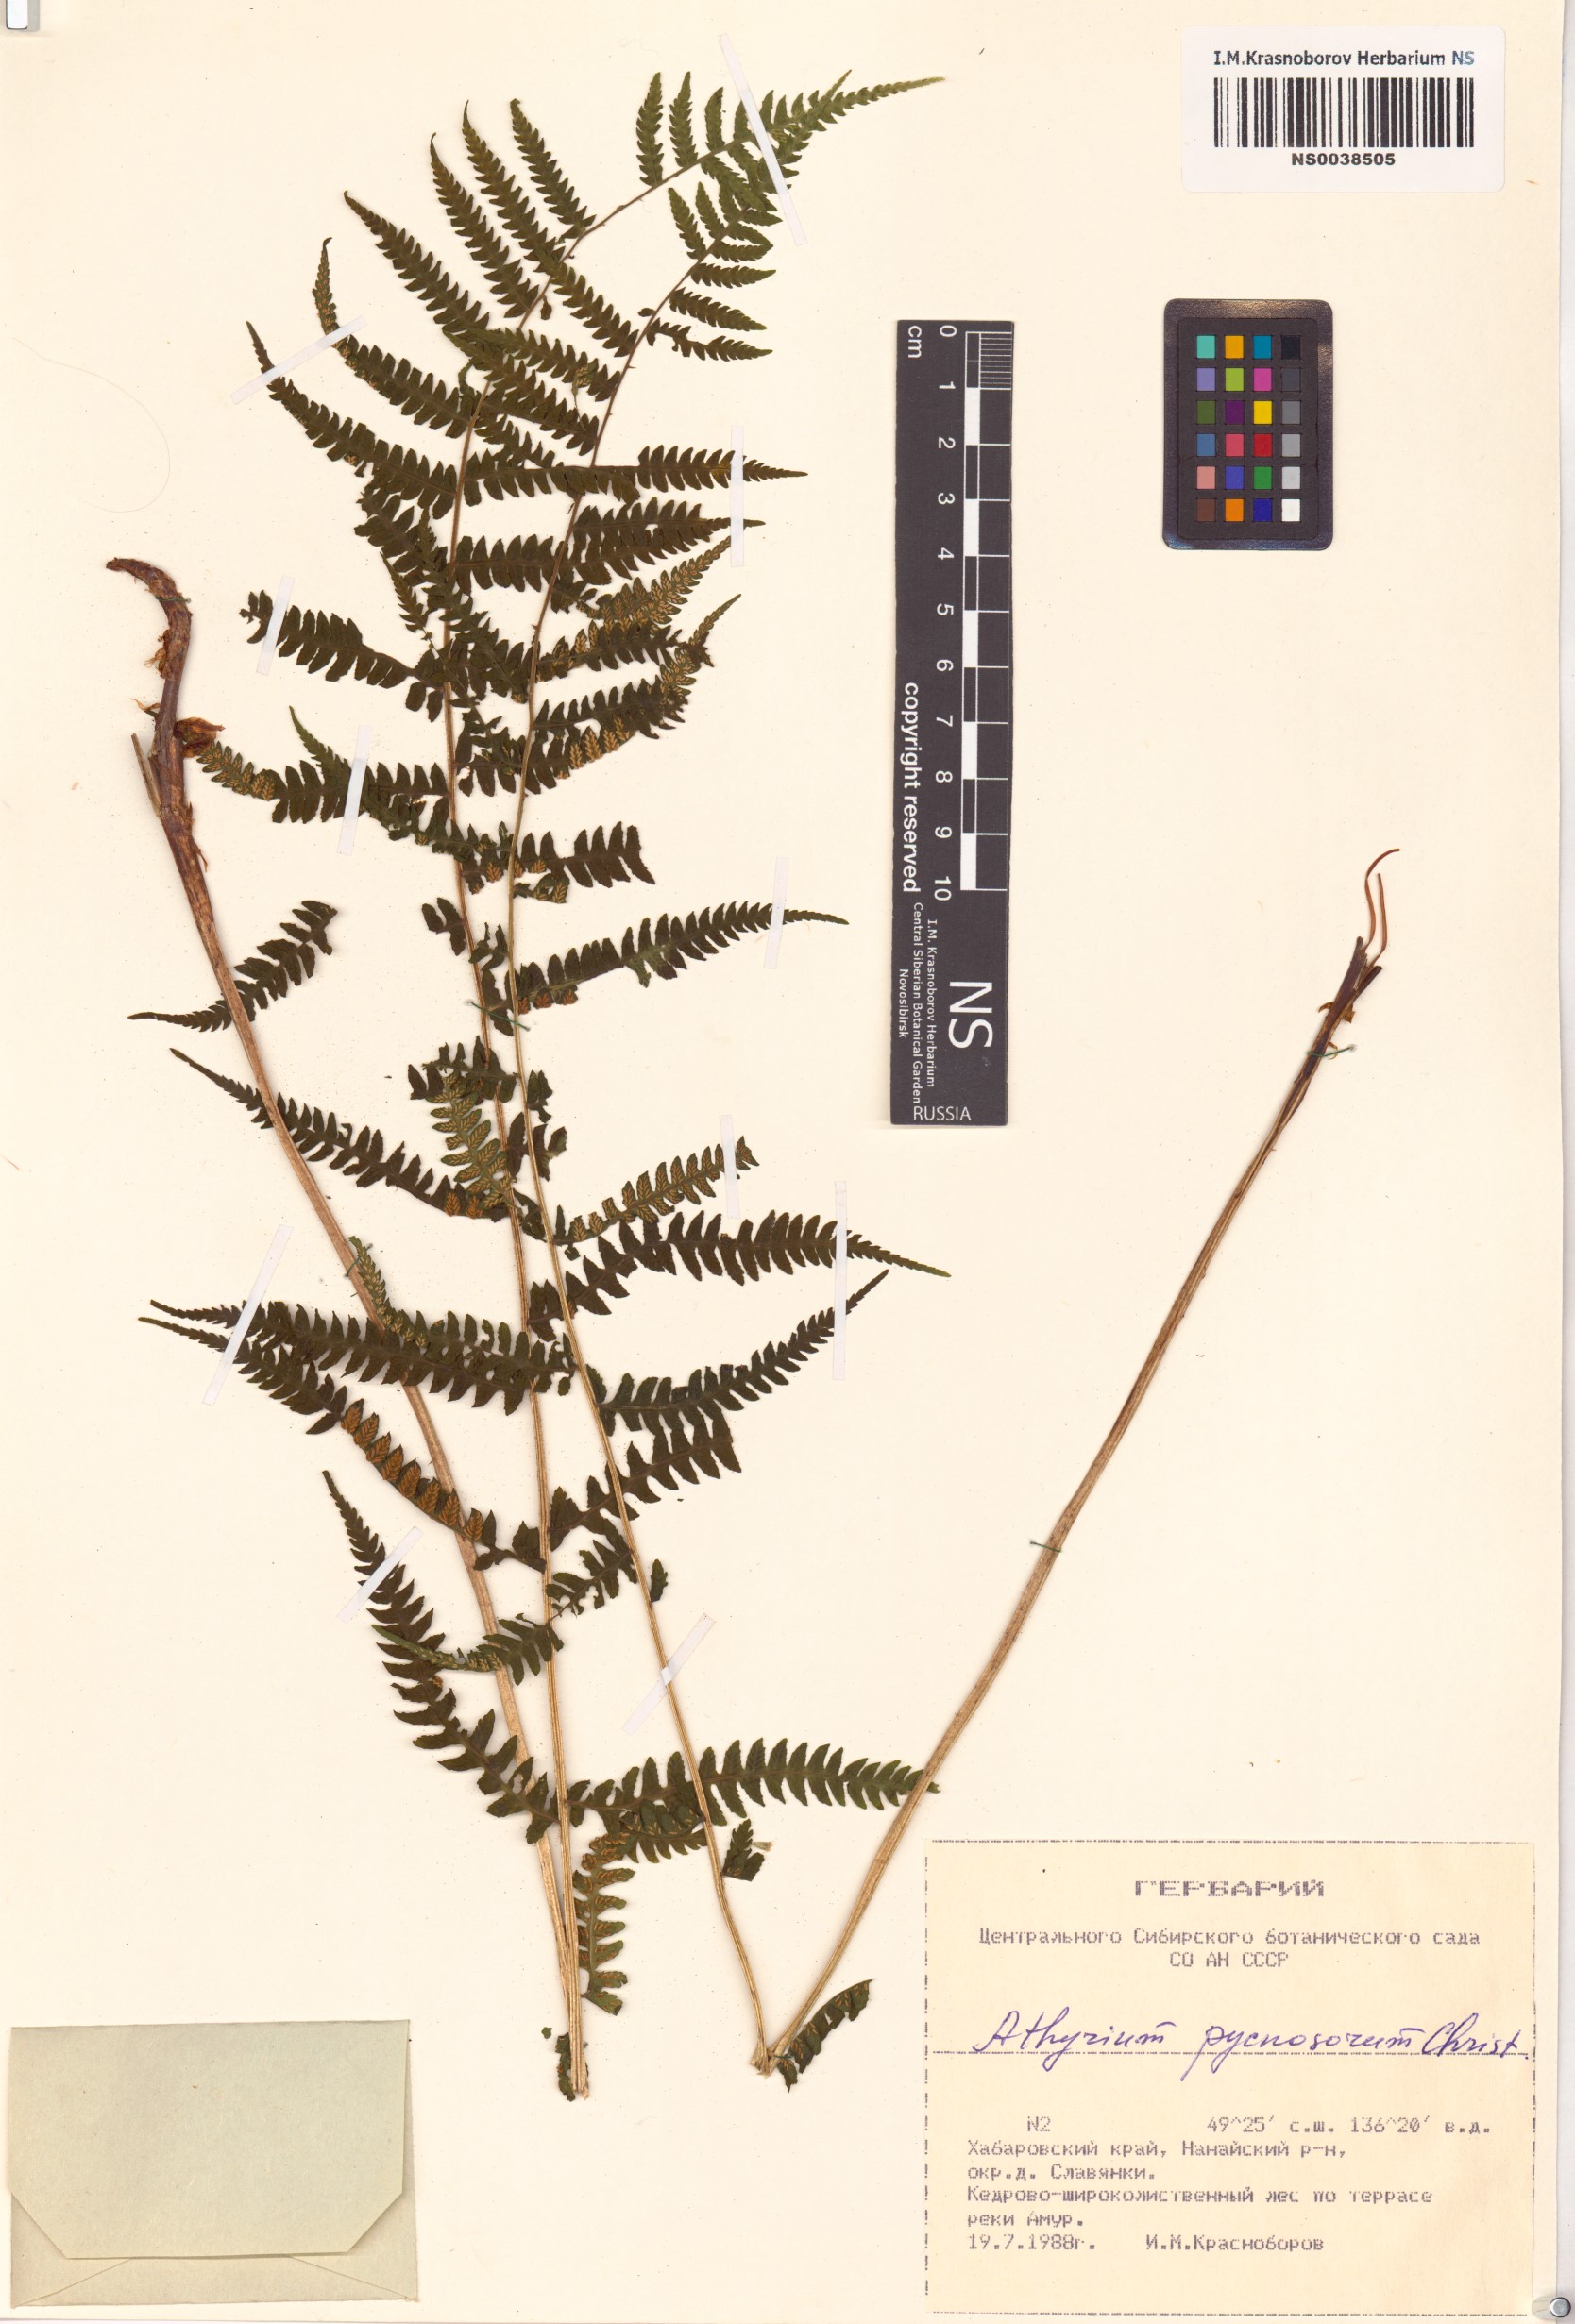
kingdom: Plantae
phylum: Tracheophyta
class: Polypodiopsida
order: Polypodiales
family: Athyriaceae
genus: Deparia
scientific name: Deparia pycnosora
